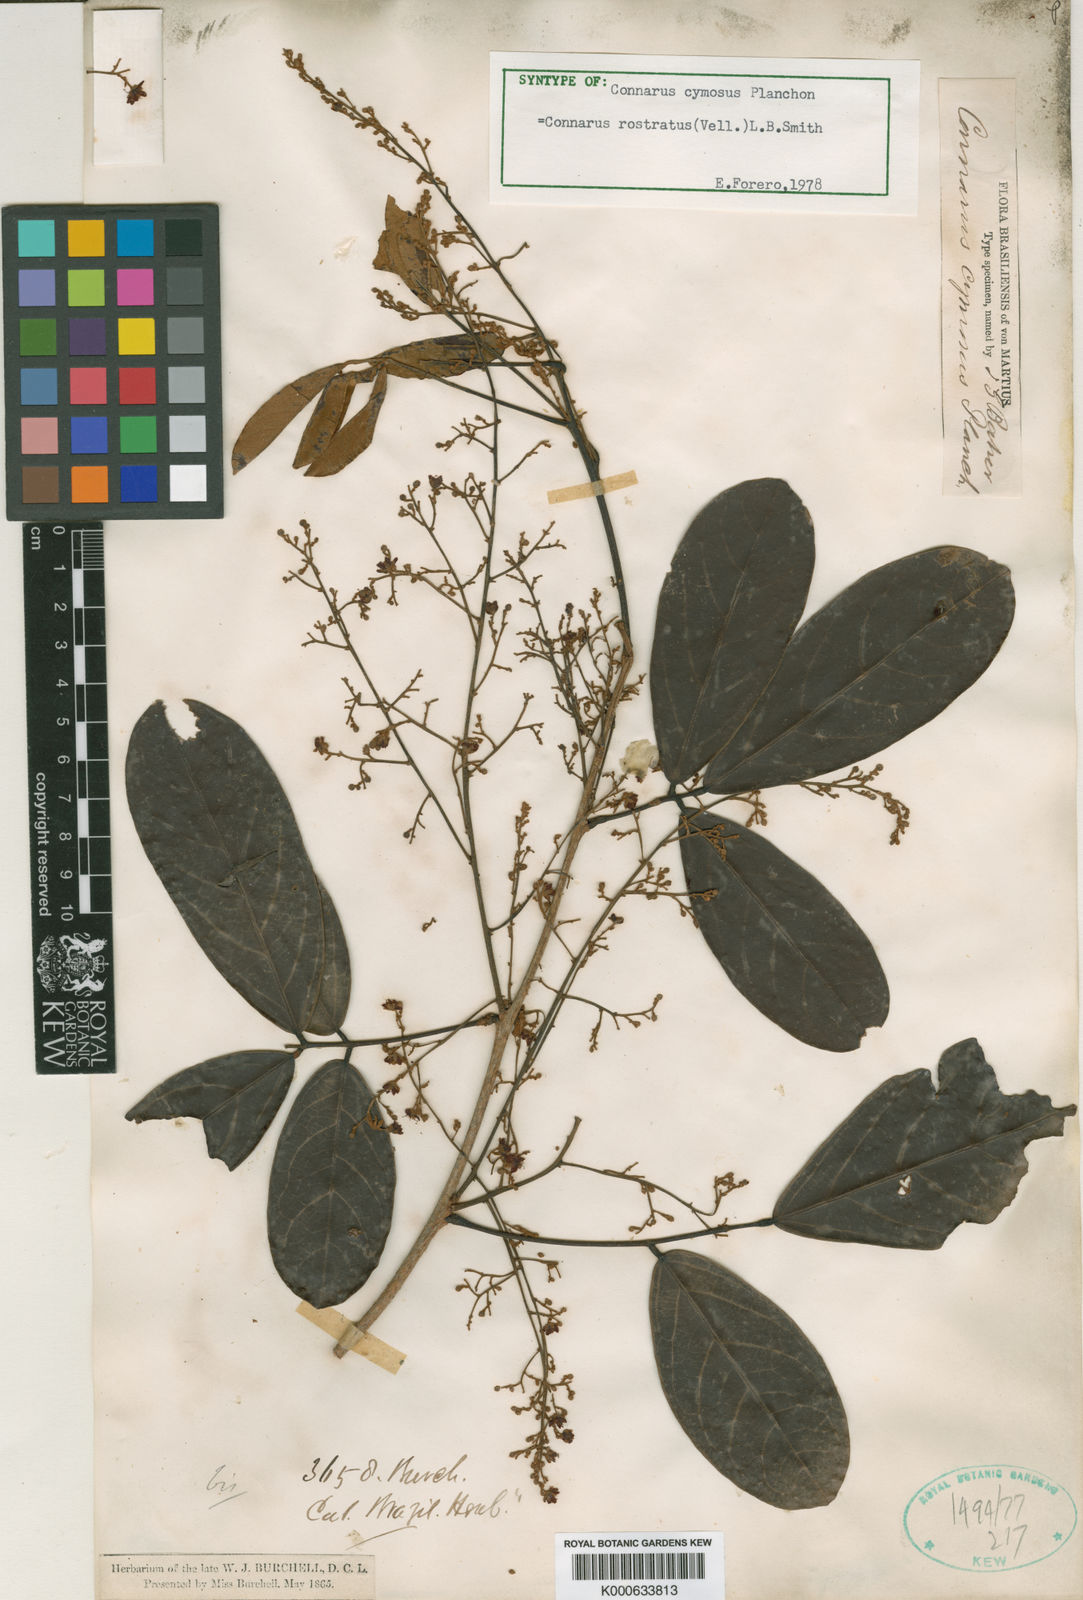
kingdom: Plantae
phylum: Tracheophyta
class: Magnoliopsida
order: Oxalidales
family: Connaraceae
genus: Connarus
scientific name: Connarus rostratus
